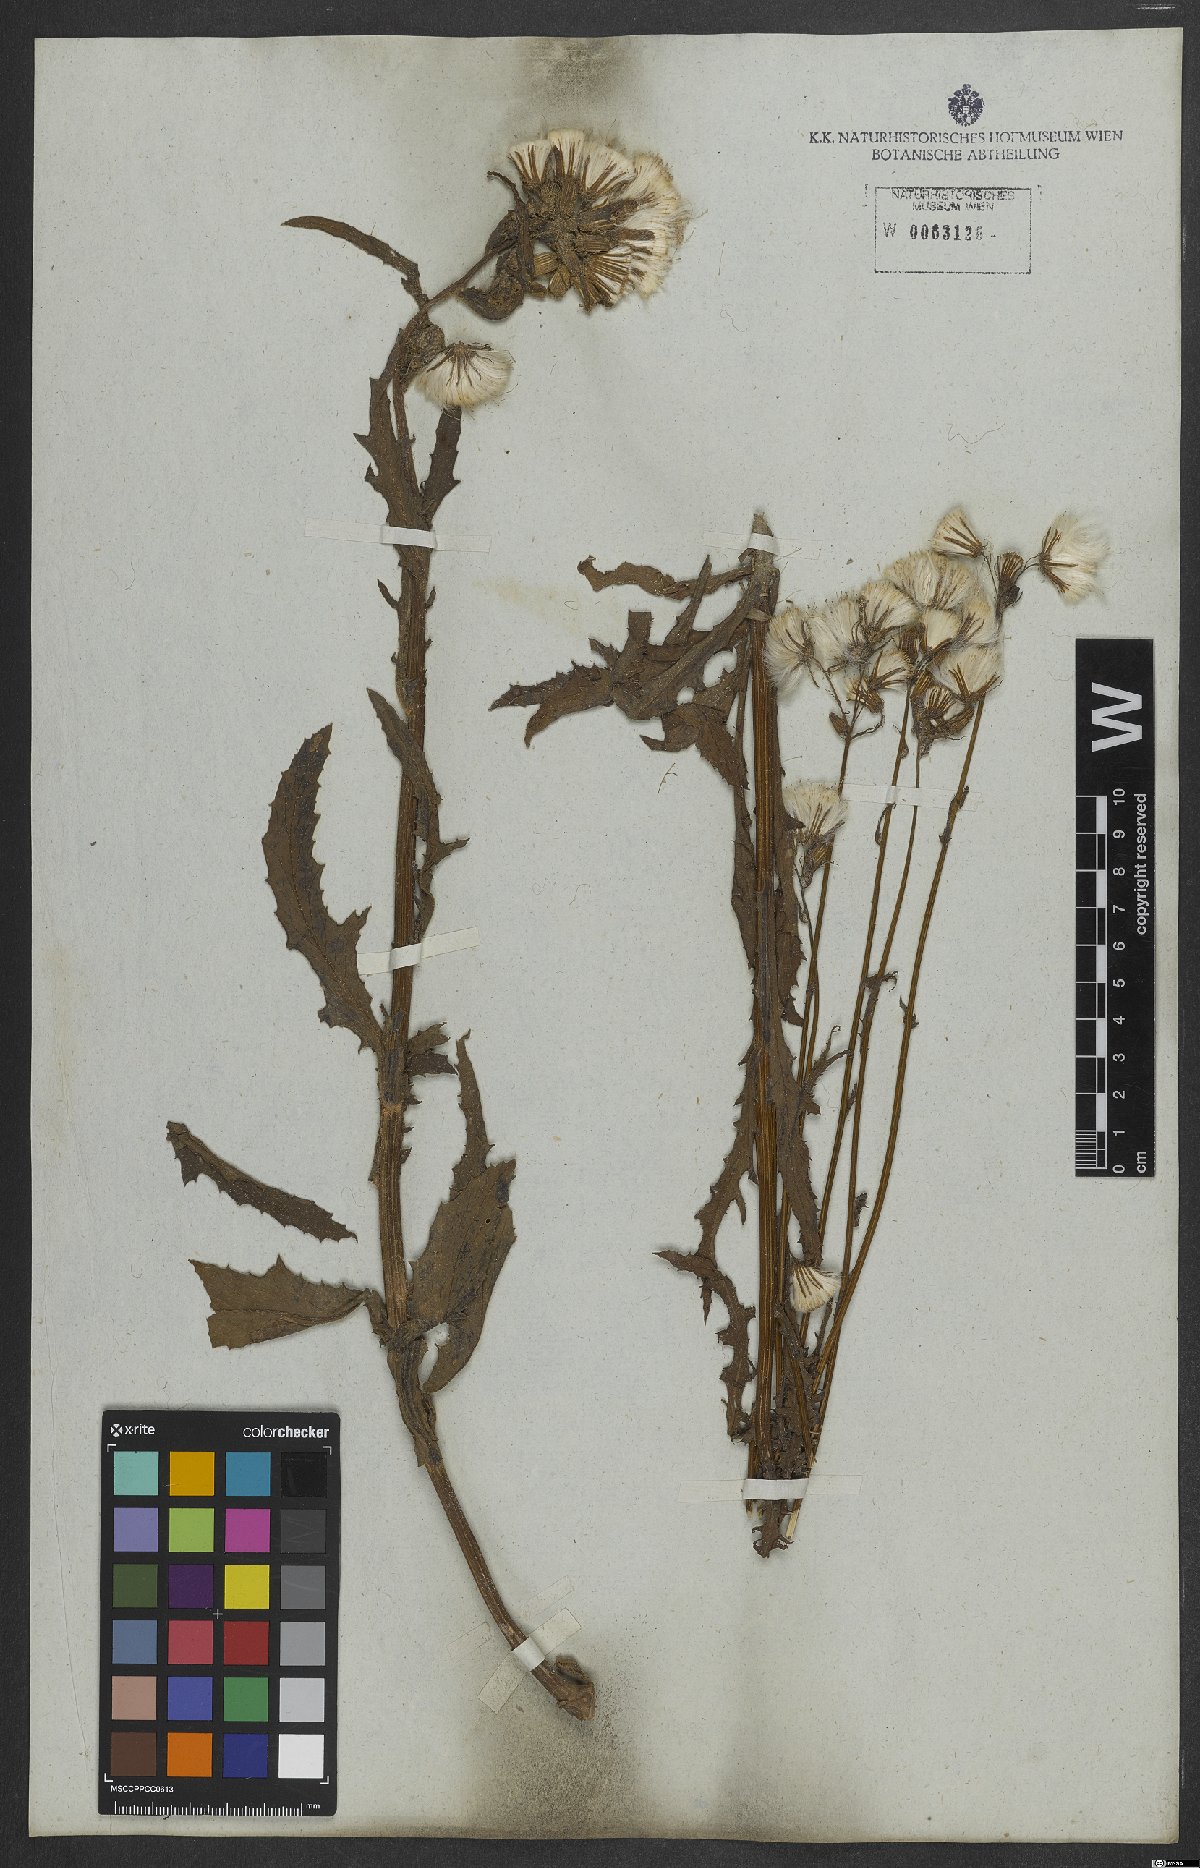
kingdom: Plantae
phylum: Tracheophyta
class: Magnoliopsida
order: Asterales
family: Asteraceae
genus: Erechtites
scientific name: Erechtites hieraciifolius
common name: American burnweed
